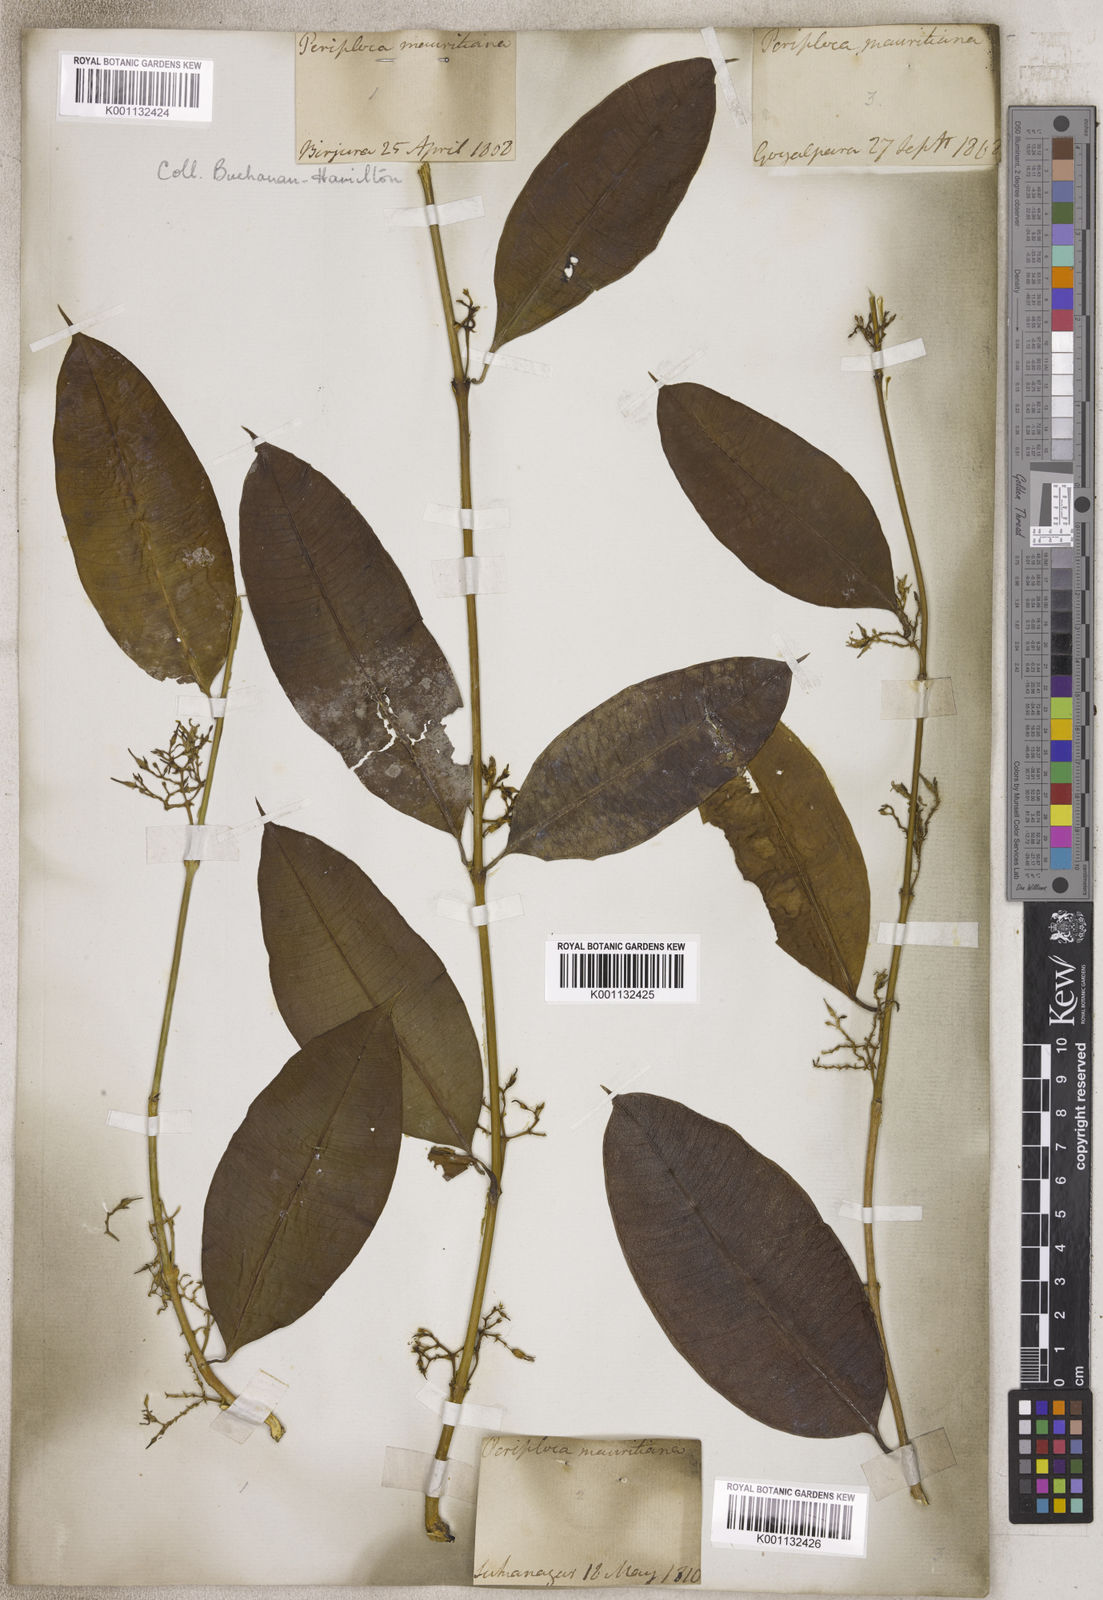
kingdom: Plantae
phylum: Tracheophyta
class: Magnoliopsida
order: Gentianales
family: Apocynaceae
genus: Periploca
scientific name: Periploca
